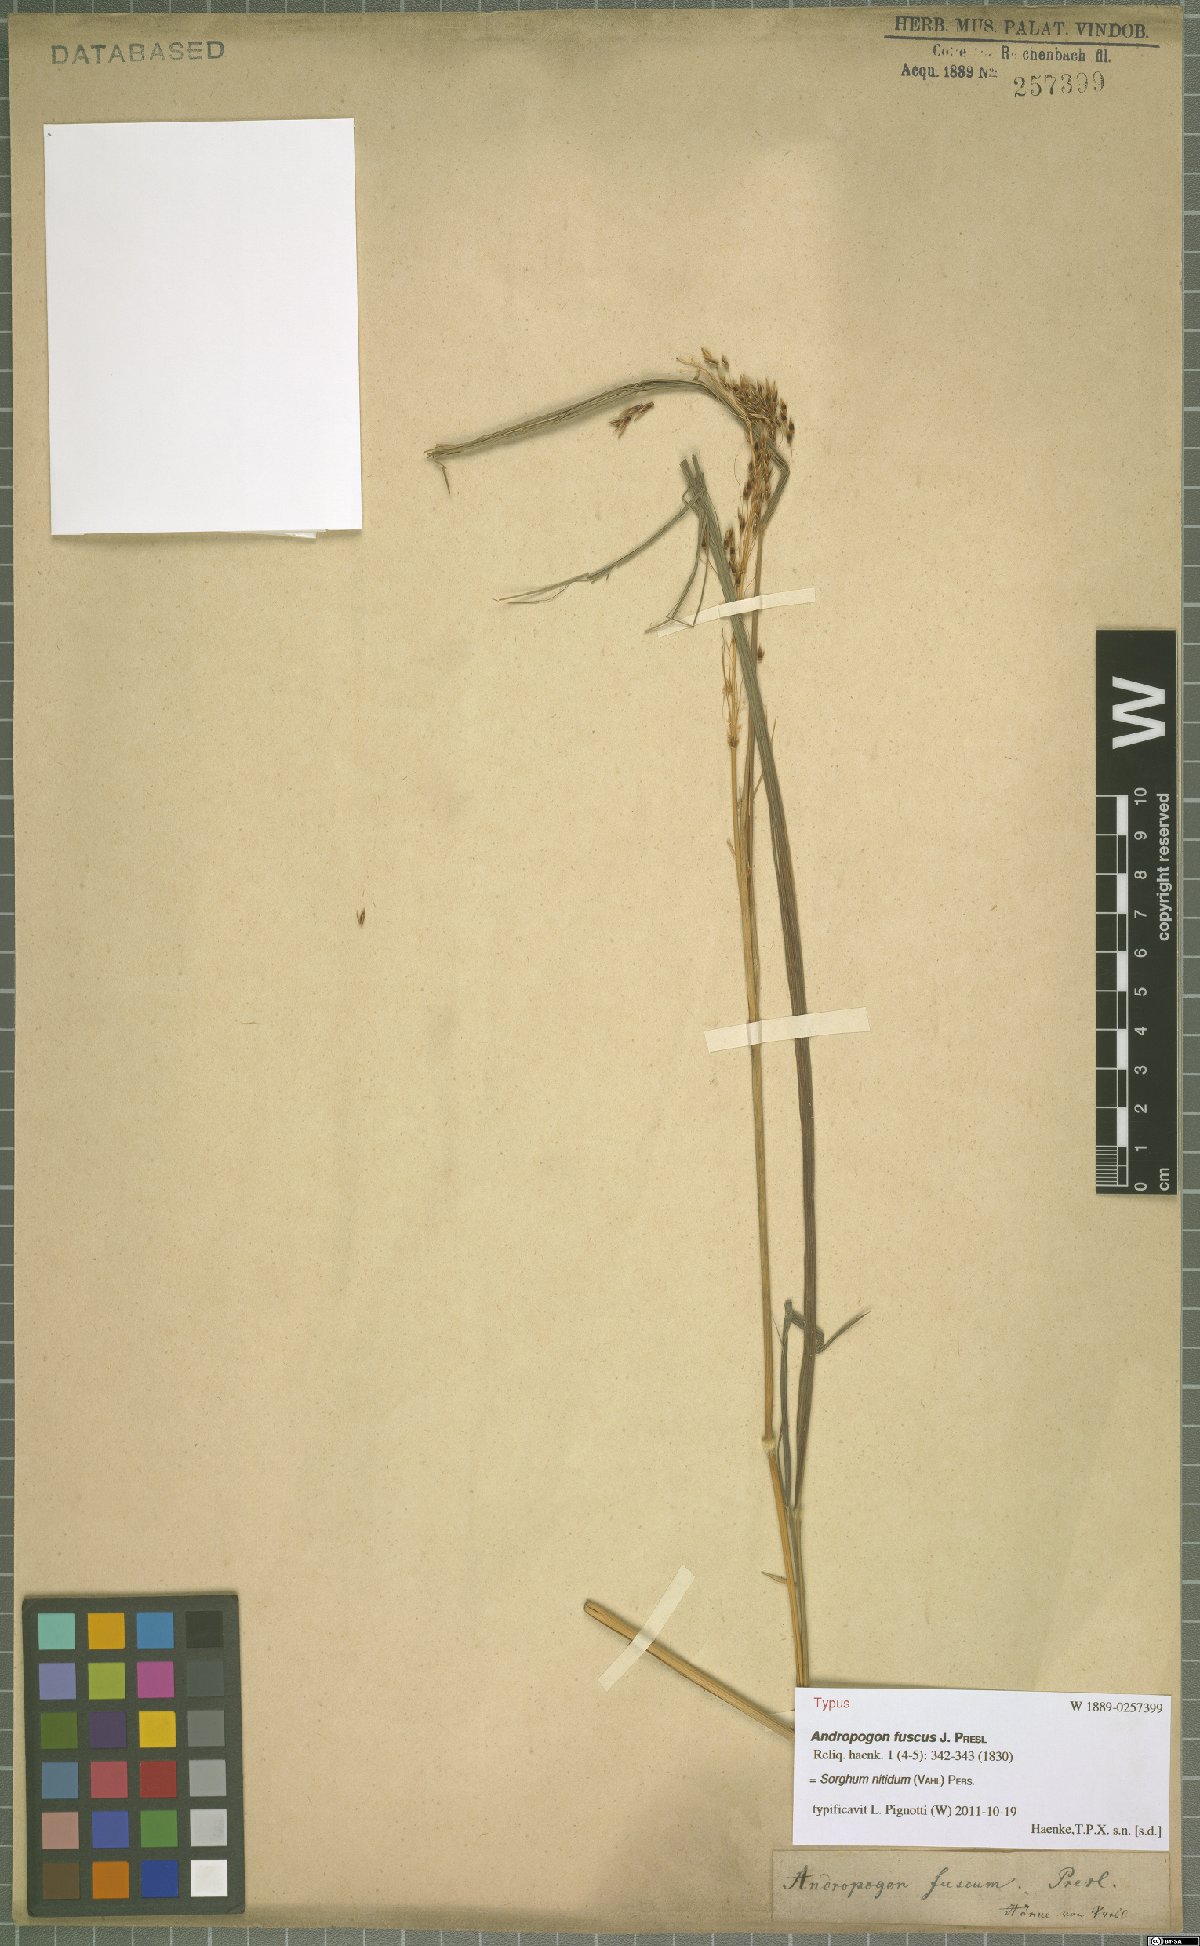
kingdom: Plantae
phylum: Tracheophyta
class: Liliopsida
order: Poales
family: Poaceae
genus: Sorghum
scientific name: Sorghum nitidum
